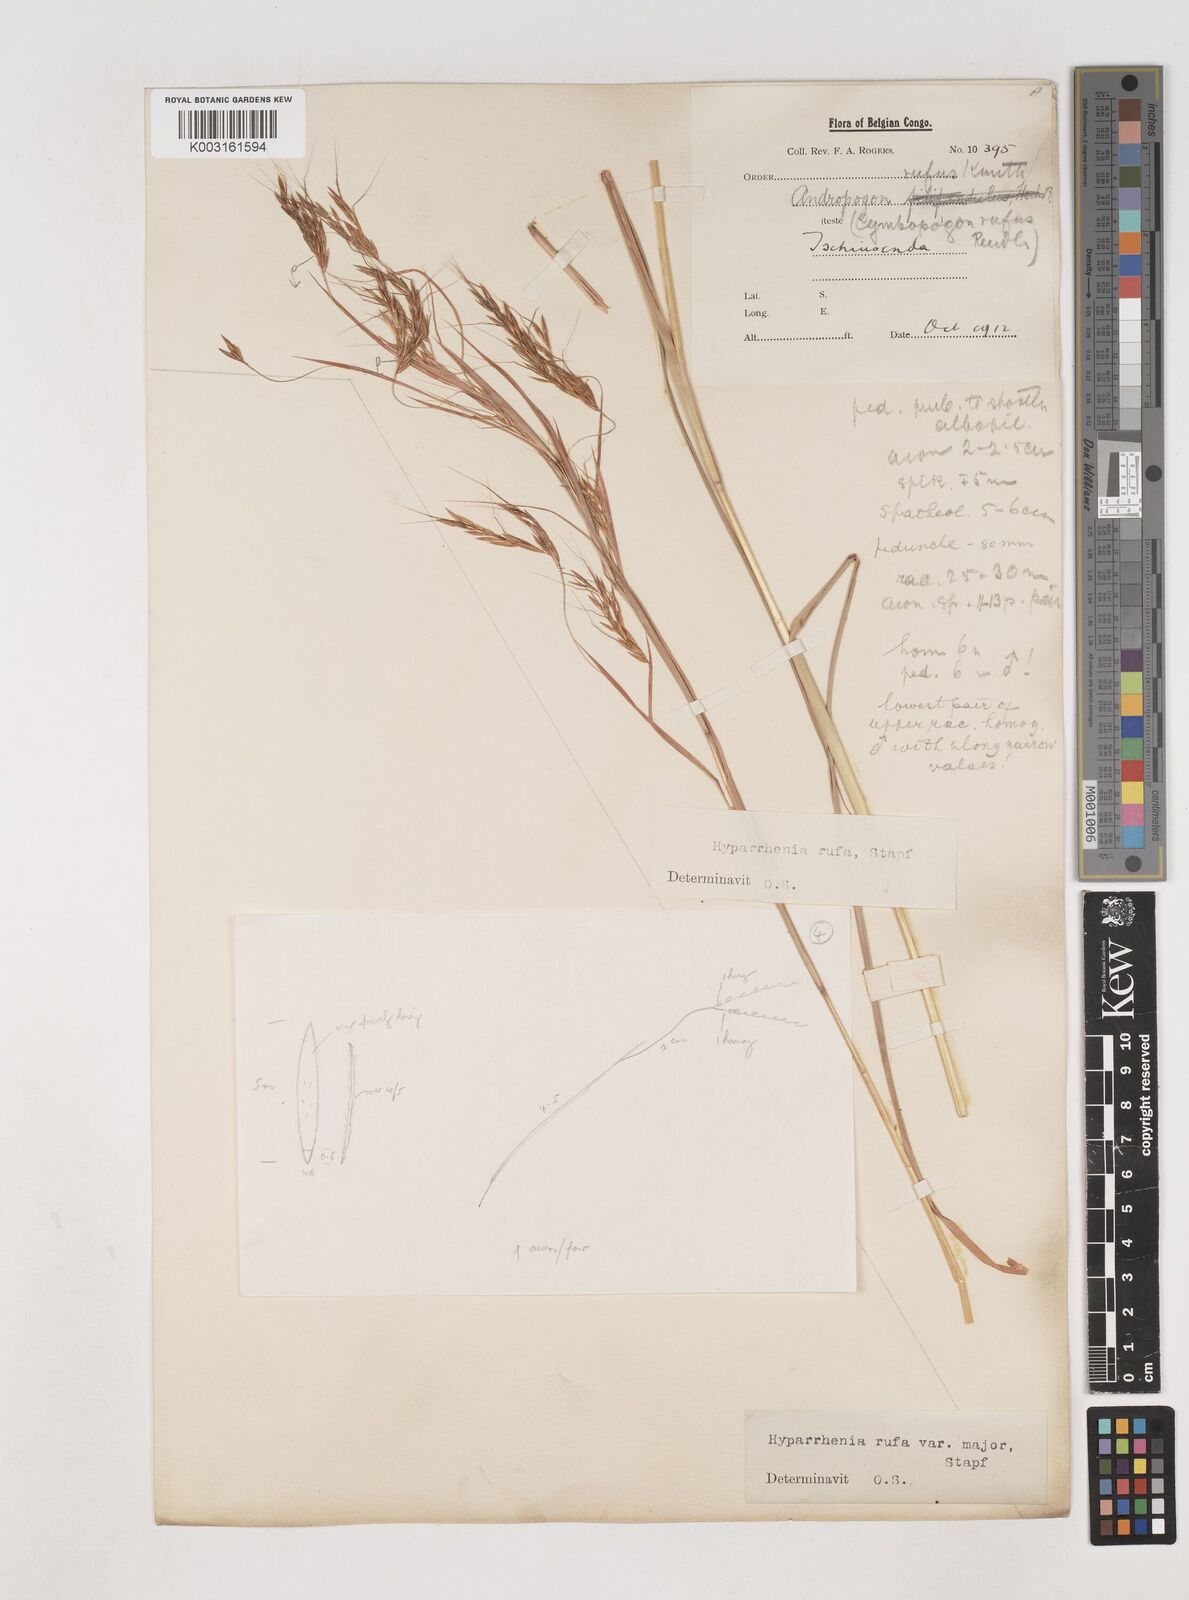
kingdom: Plantae
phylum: Tracheophyta
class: Liliopsida
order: Poales
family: Poaceae
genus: Hyparrhenia
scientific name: Hyparrhenia rufa
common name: Jaraguagrass
